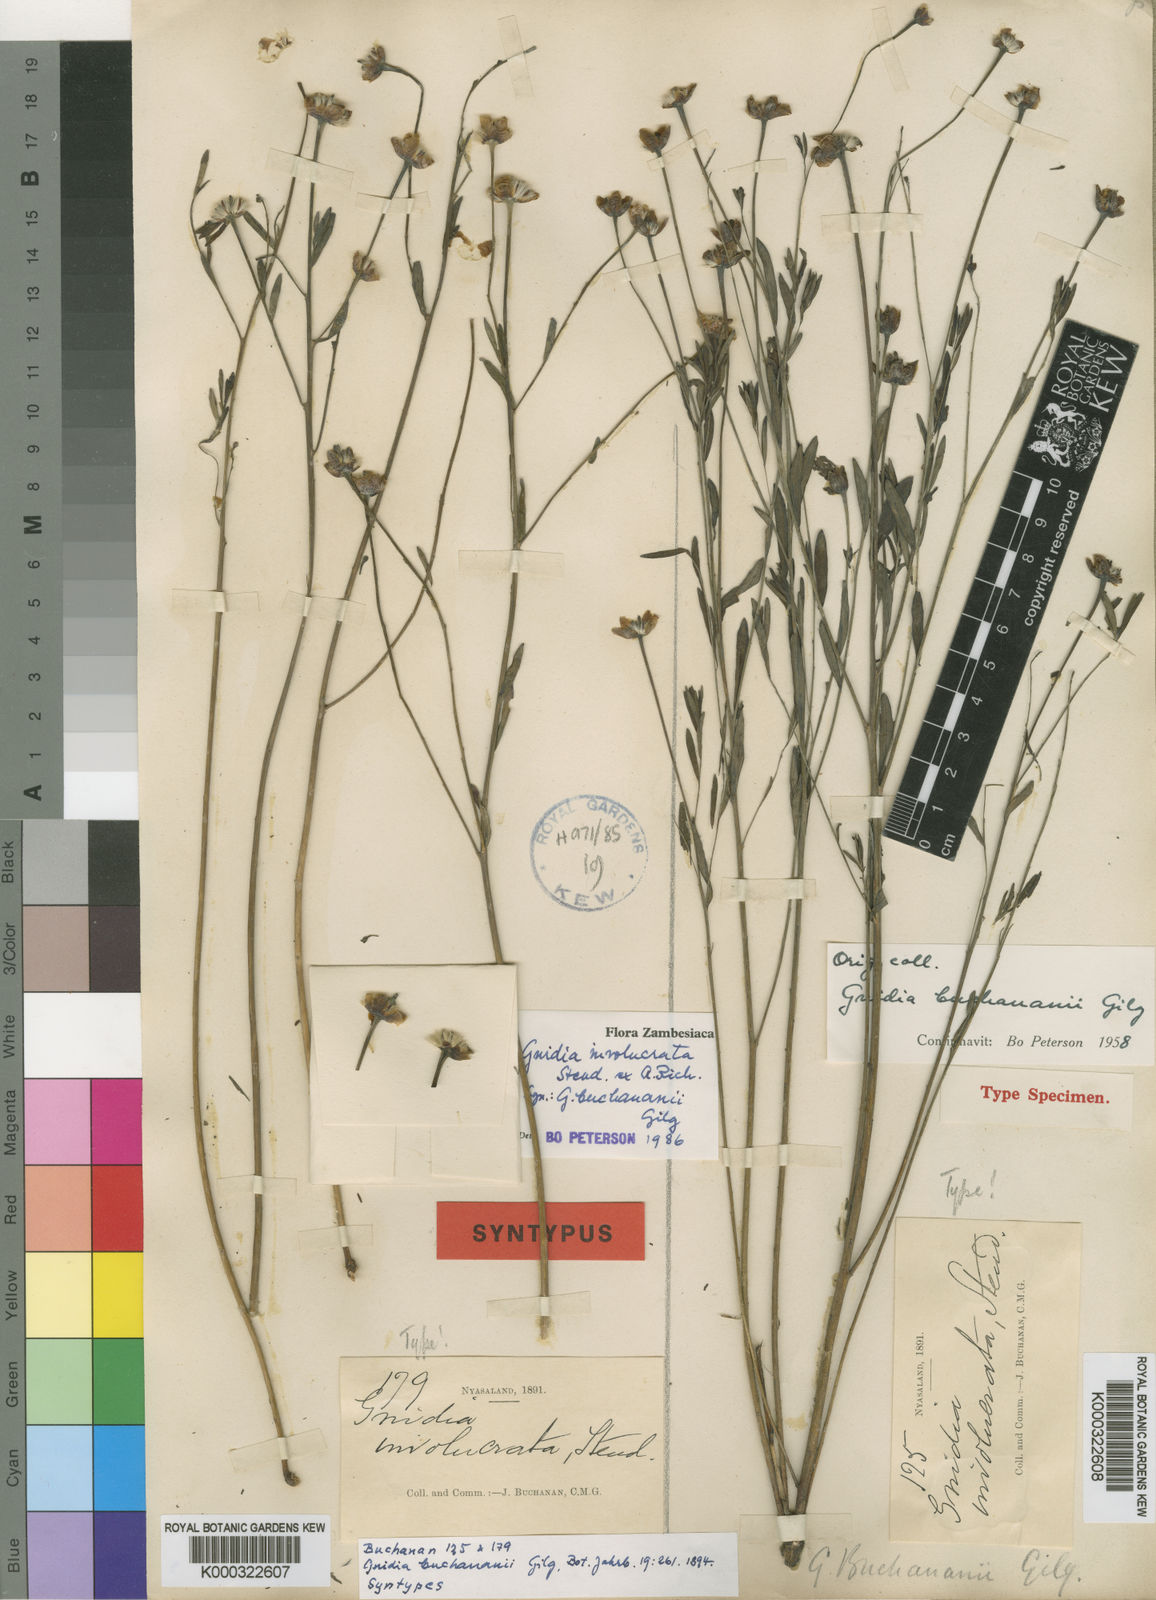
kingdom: Plantae
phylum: Tracheophyta
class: Magnoliopsida
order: Malvales
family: Thymelaeaceae
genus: Gnidia
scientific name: Gnidia involucrata
